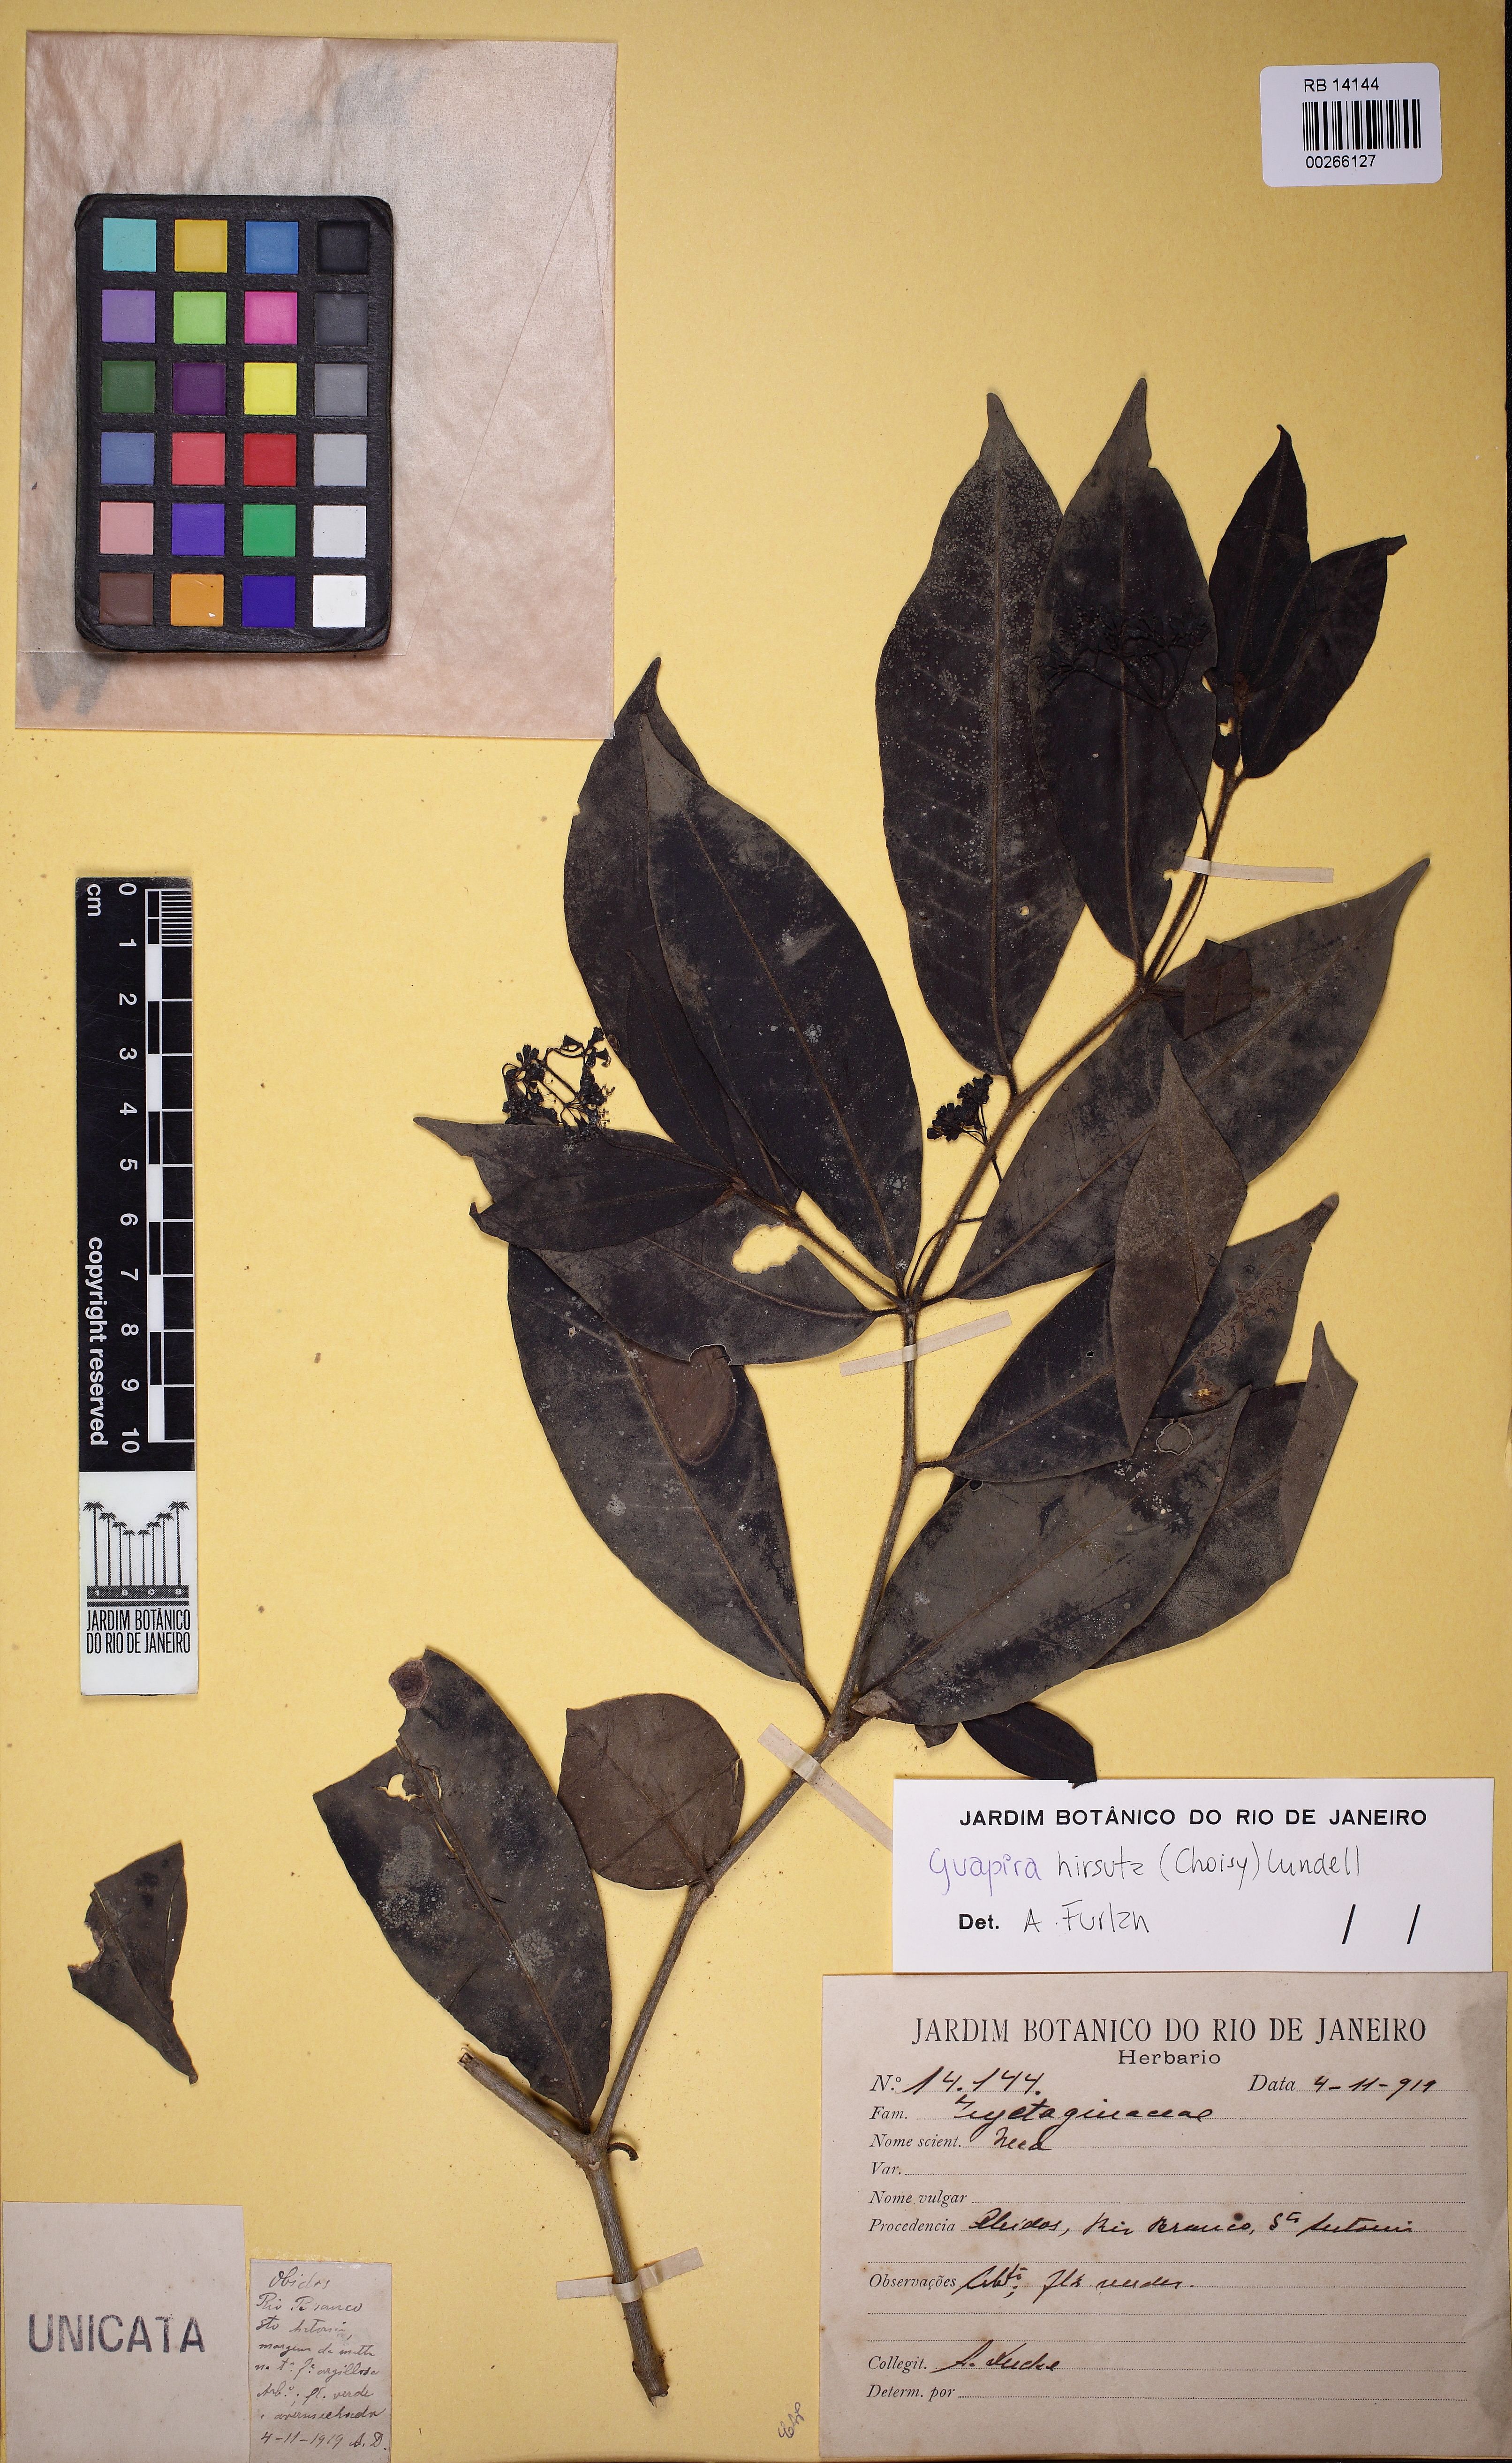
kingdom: Plantae
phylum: Tracheophyta
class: Magnoliopsida
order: Caryophyllales
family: Nyctaginaceae
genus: Guapira
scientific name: Guapira hirsuta
